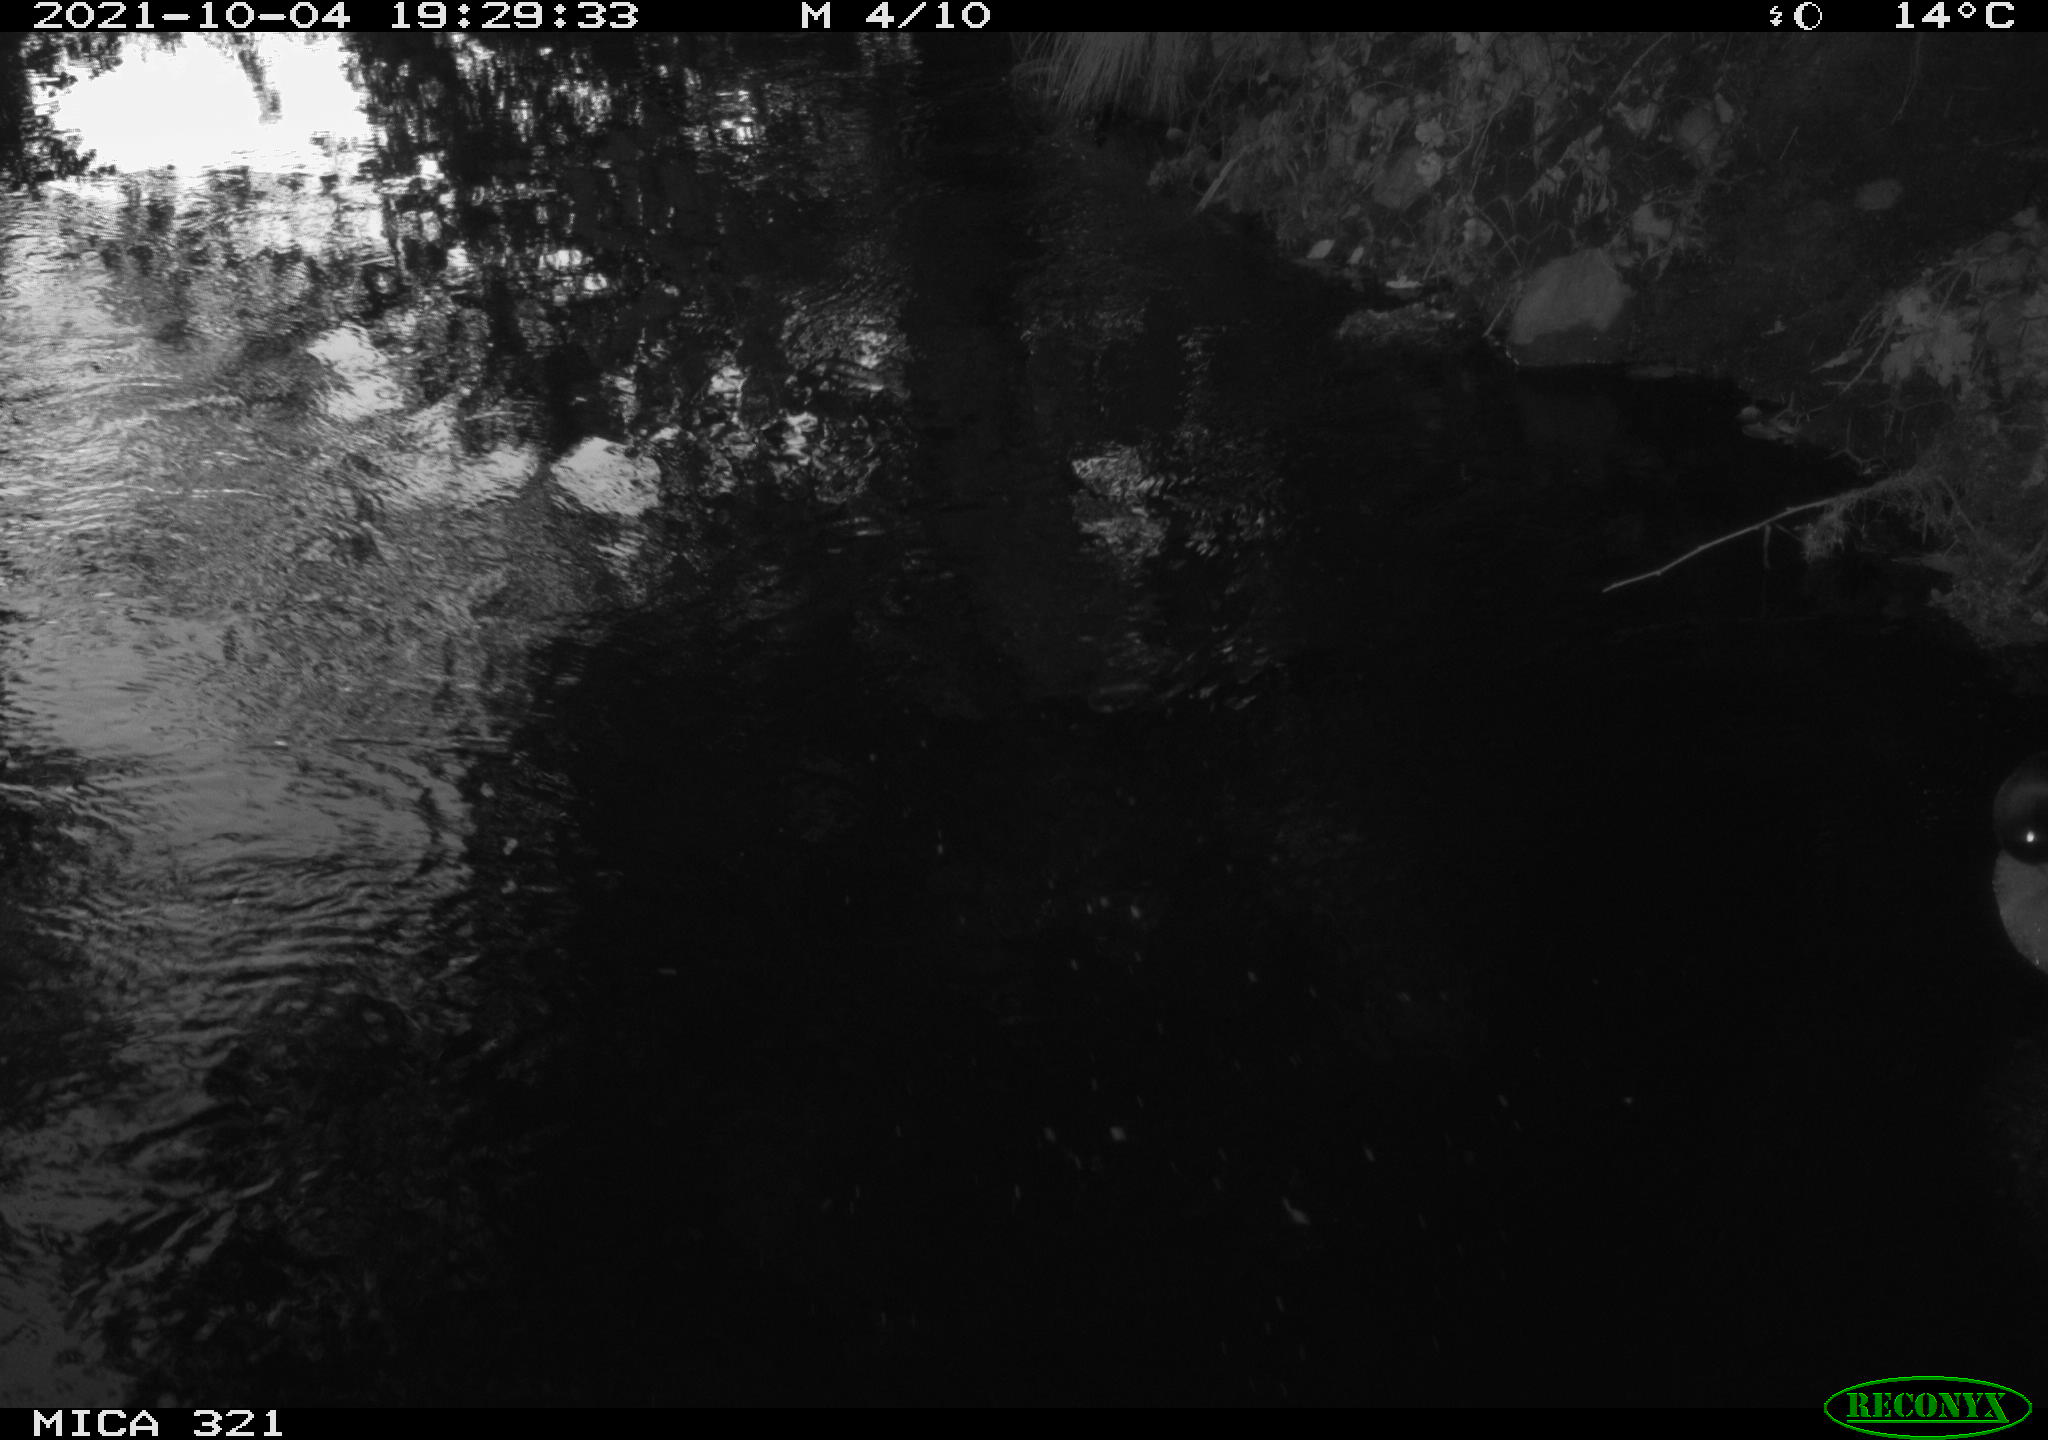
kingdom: Animalia
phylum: Chordata
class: Aves
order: Anseriformes
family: Anatidae
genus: Anas
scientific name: Anas platyrhynchos
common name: Mallard
